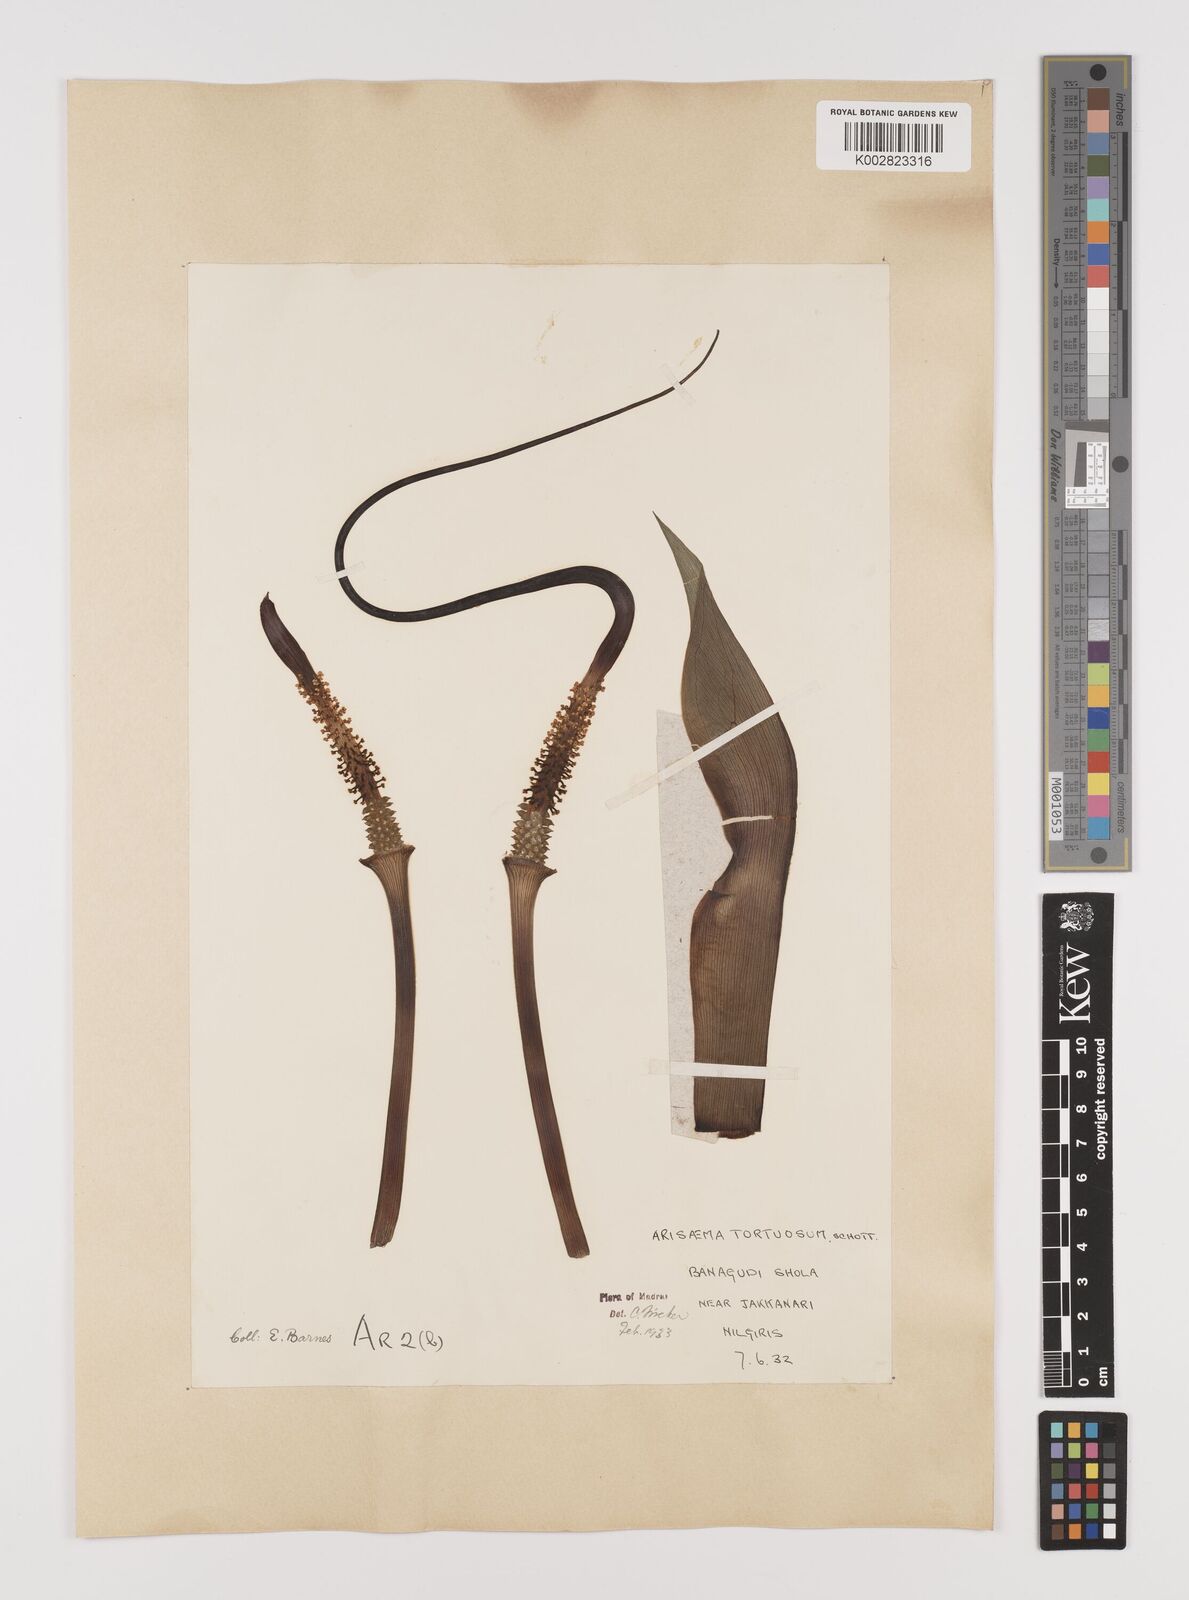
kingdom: Plantae
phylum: Tracheophyta
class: Liliopsida
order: Alismatales
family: Araceae
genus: Arisaema
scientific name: Arisaema tortuosum
